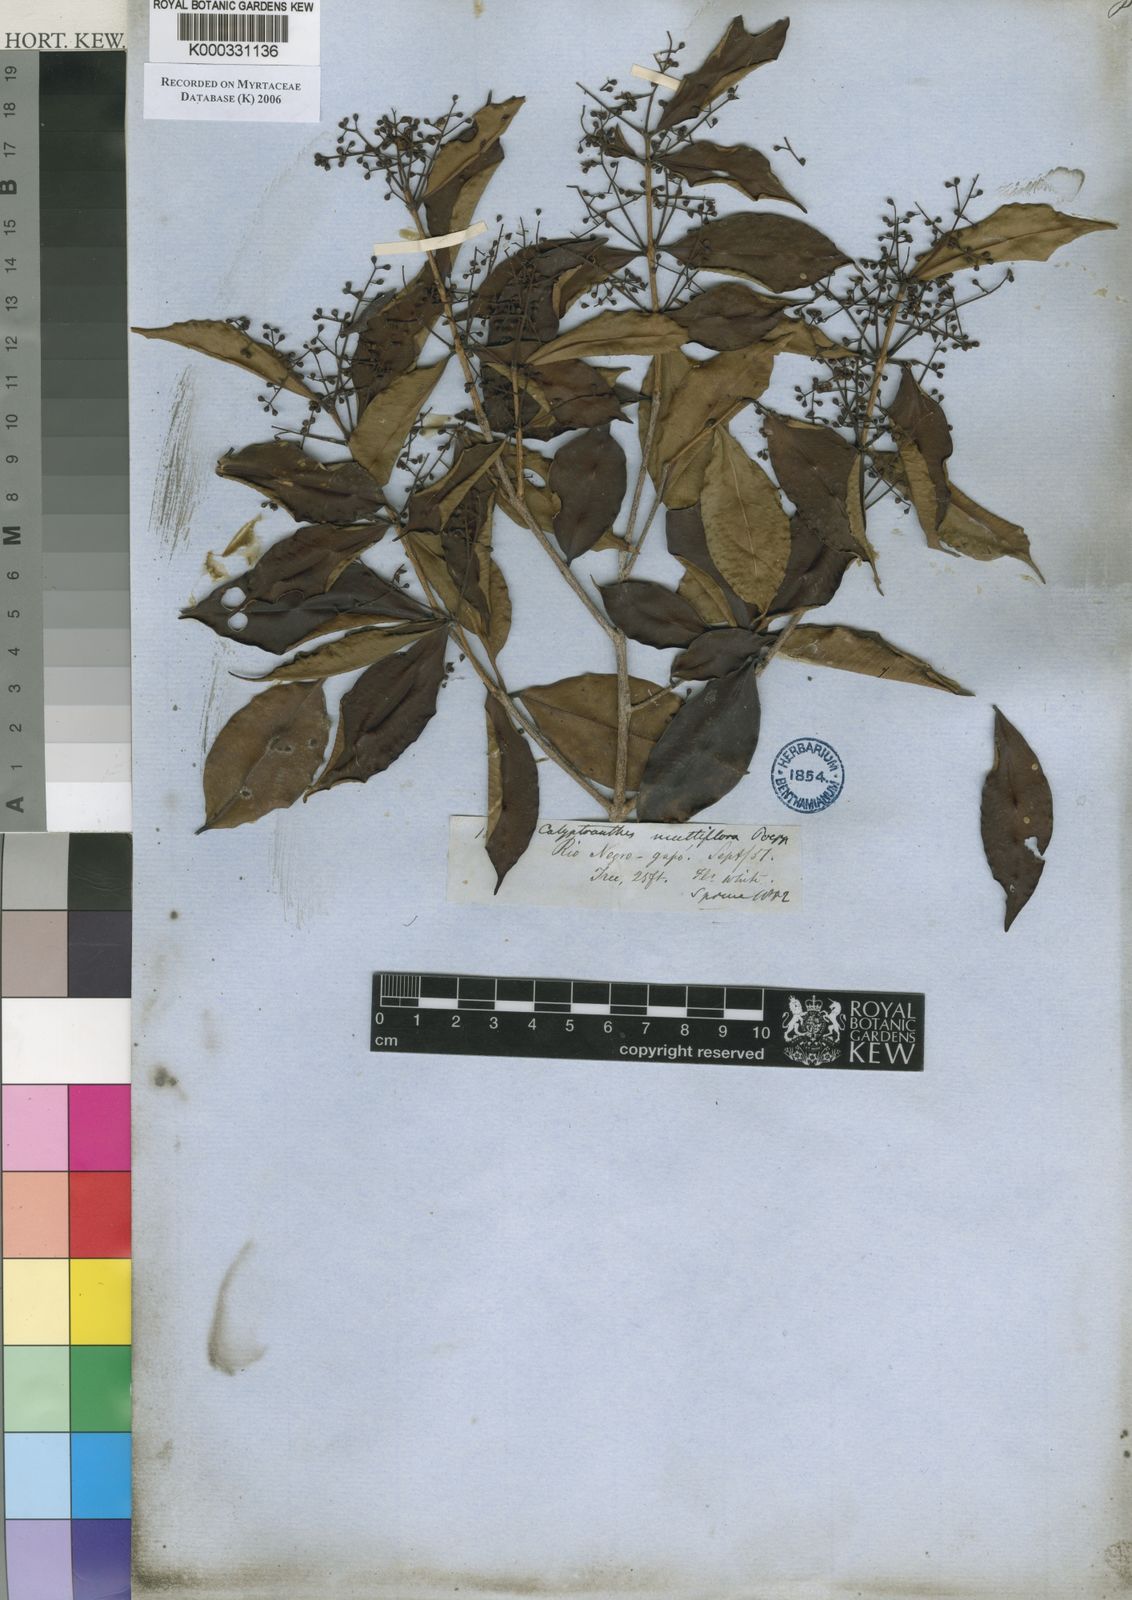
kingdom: Plantae
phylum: Tracheophyta
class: Magnoliopsida
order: Myrtales
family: Myrtaceae
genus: Myrcia
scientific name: Myrcia aulomyrcioides
